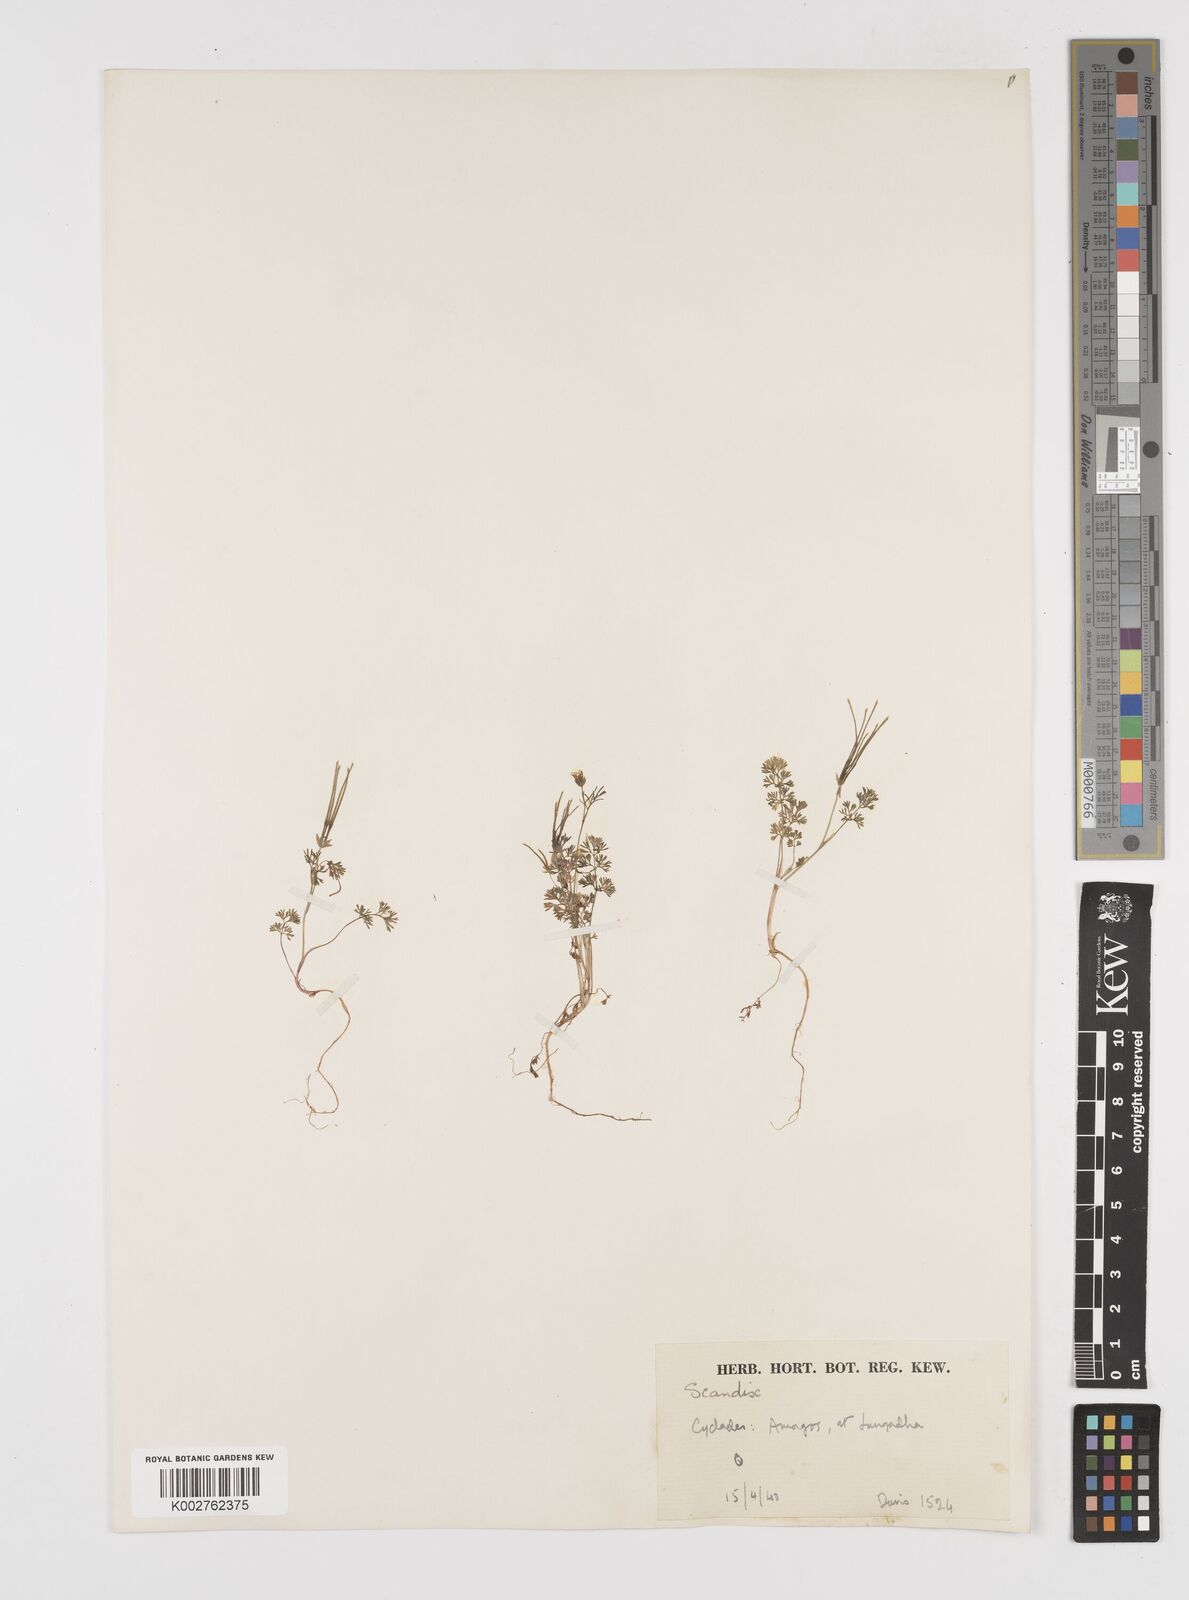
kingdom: Plantae
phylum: Tracheophyta
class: Magnoliopsida
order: Apiales
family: Apiaceae
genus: Scandix
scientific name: Scandix pecten-veneris
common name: Shepherd's-needle
